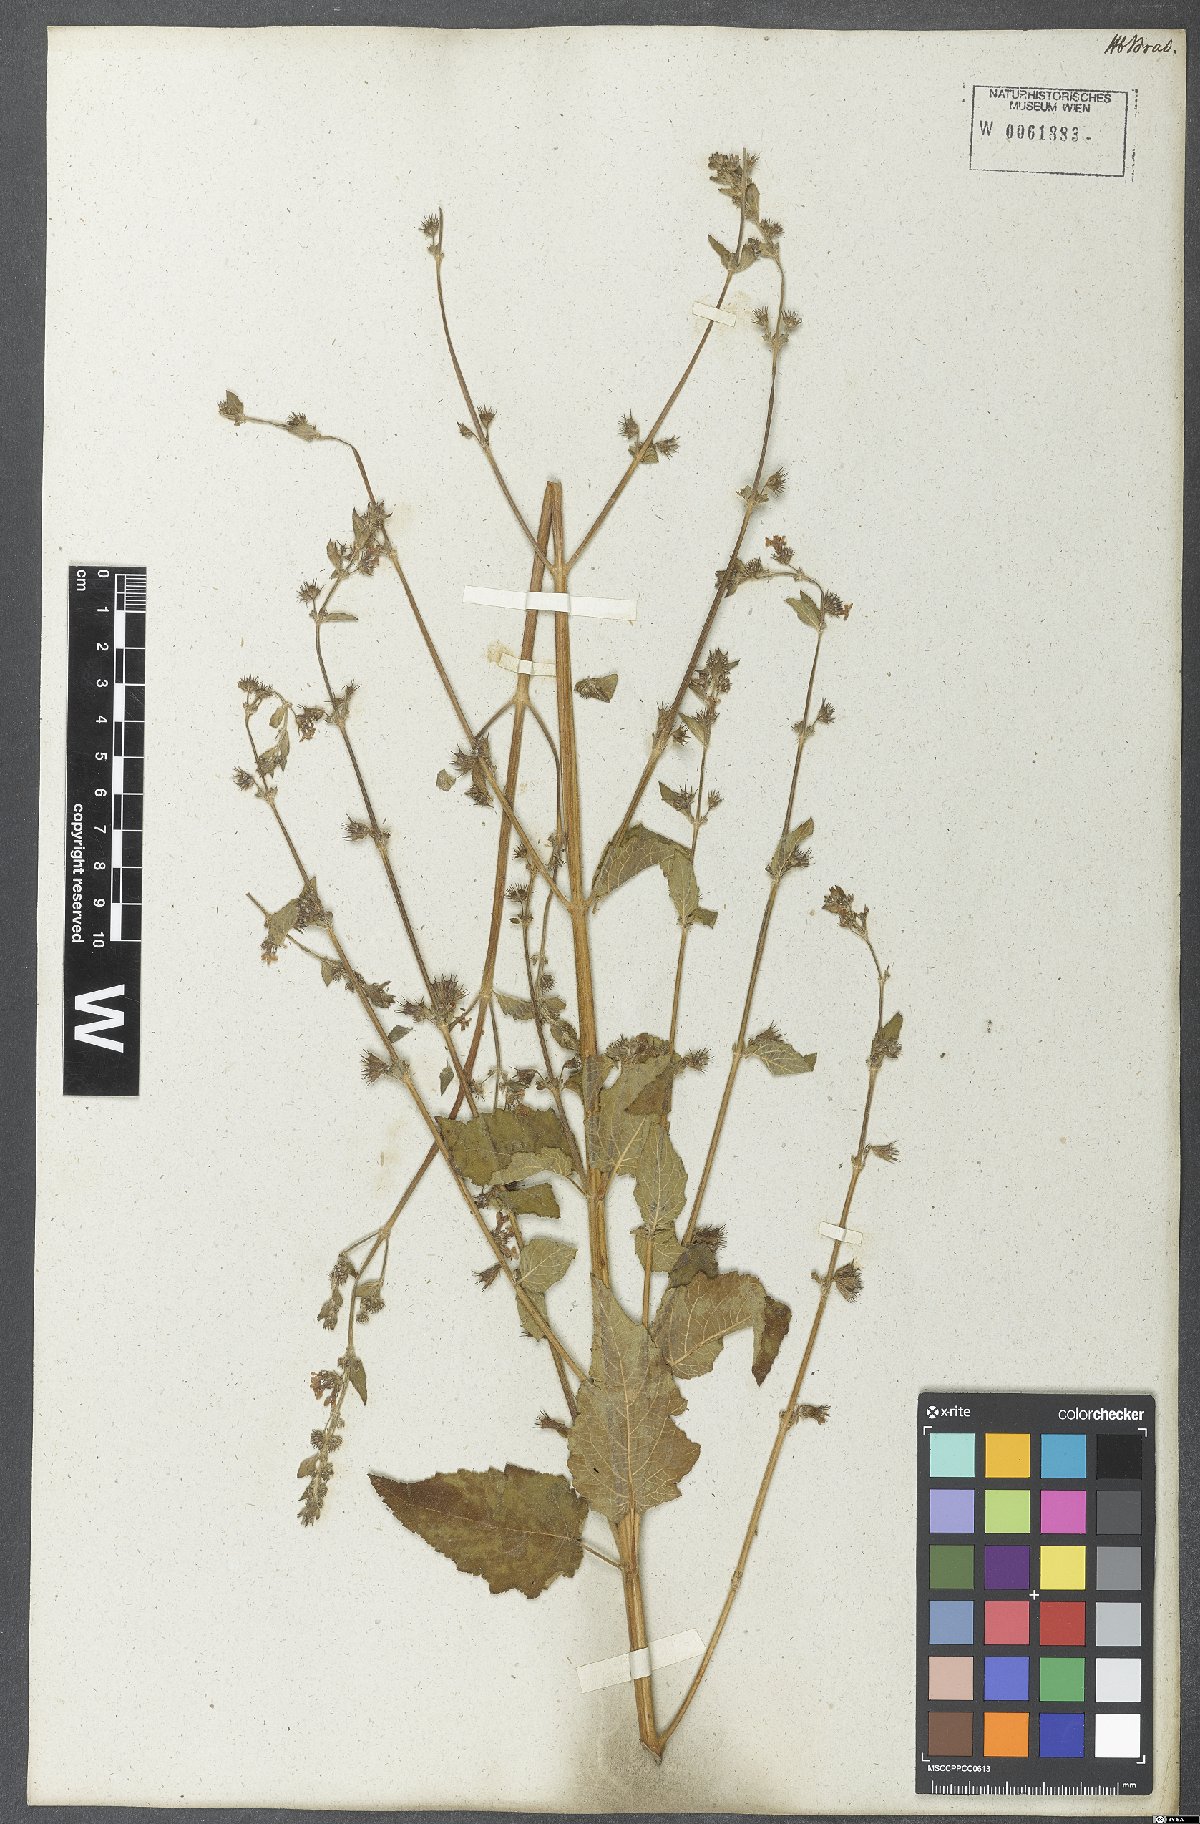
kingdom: Plantae
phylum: Tracheophyta
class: Magnoliopsida
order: Lamiales
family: Lamiaceae
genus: Mesosphaerum
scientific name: Mesosphaerum suaveolens
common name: Pignut
